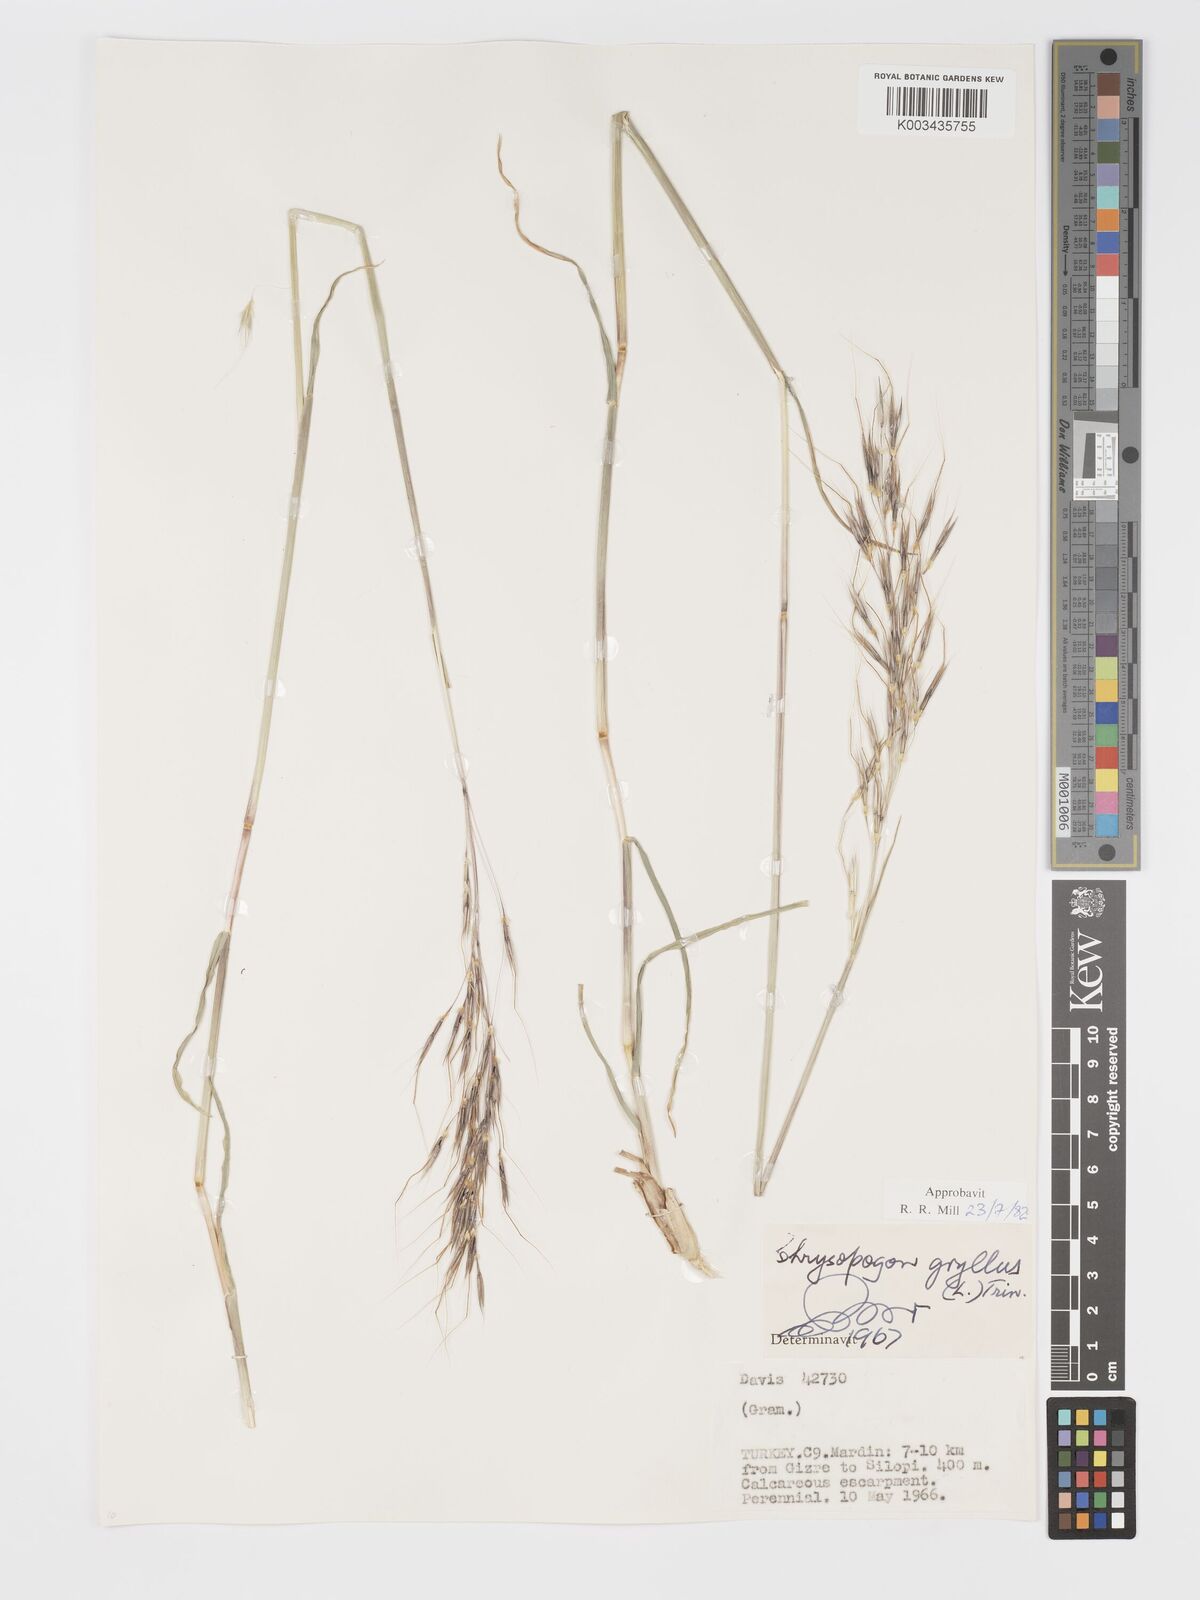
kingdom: Plantae
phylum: Tracheophyta
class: Liliopsida
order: Poales
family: Poaceae
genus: Chrysopogon
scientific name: Chrysopogon gryllus
